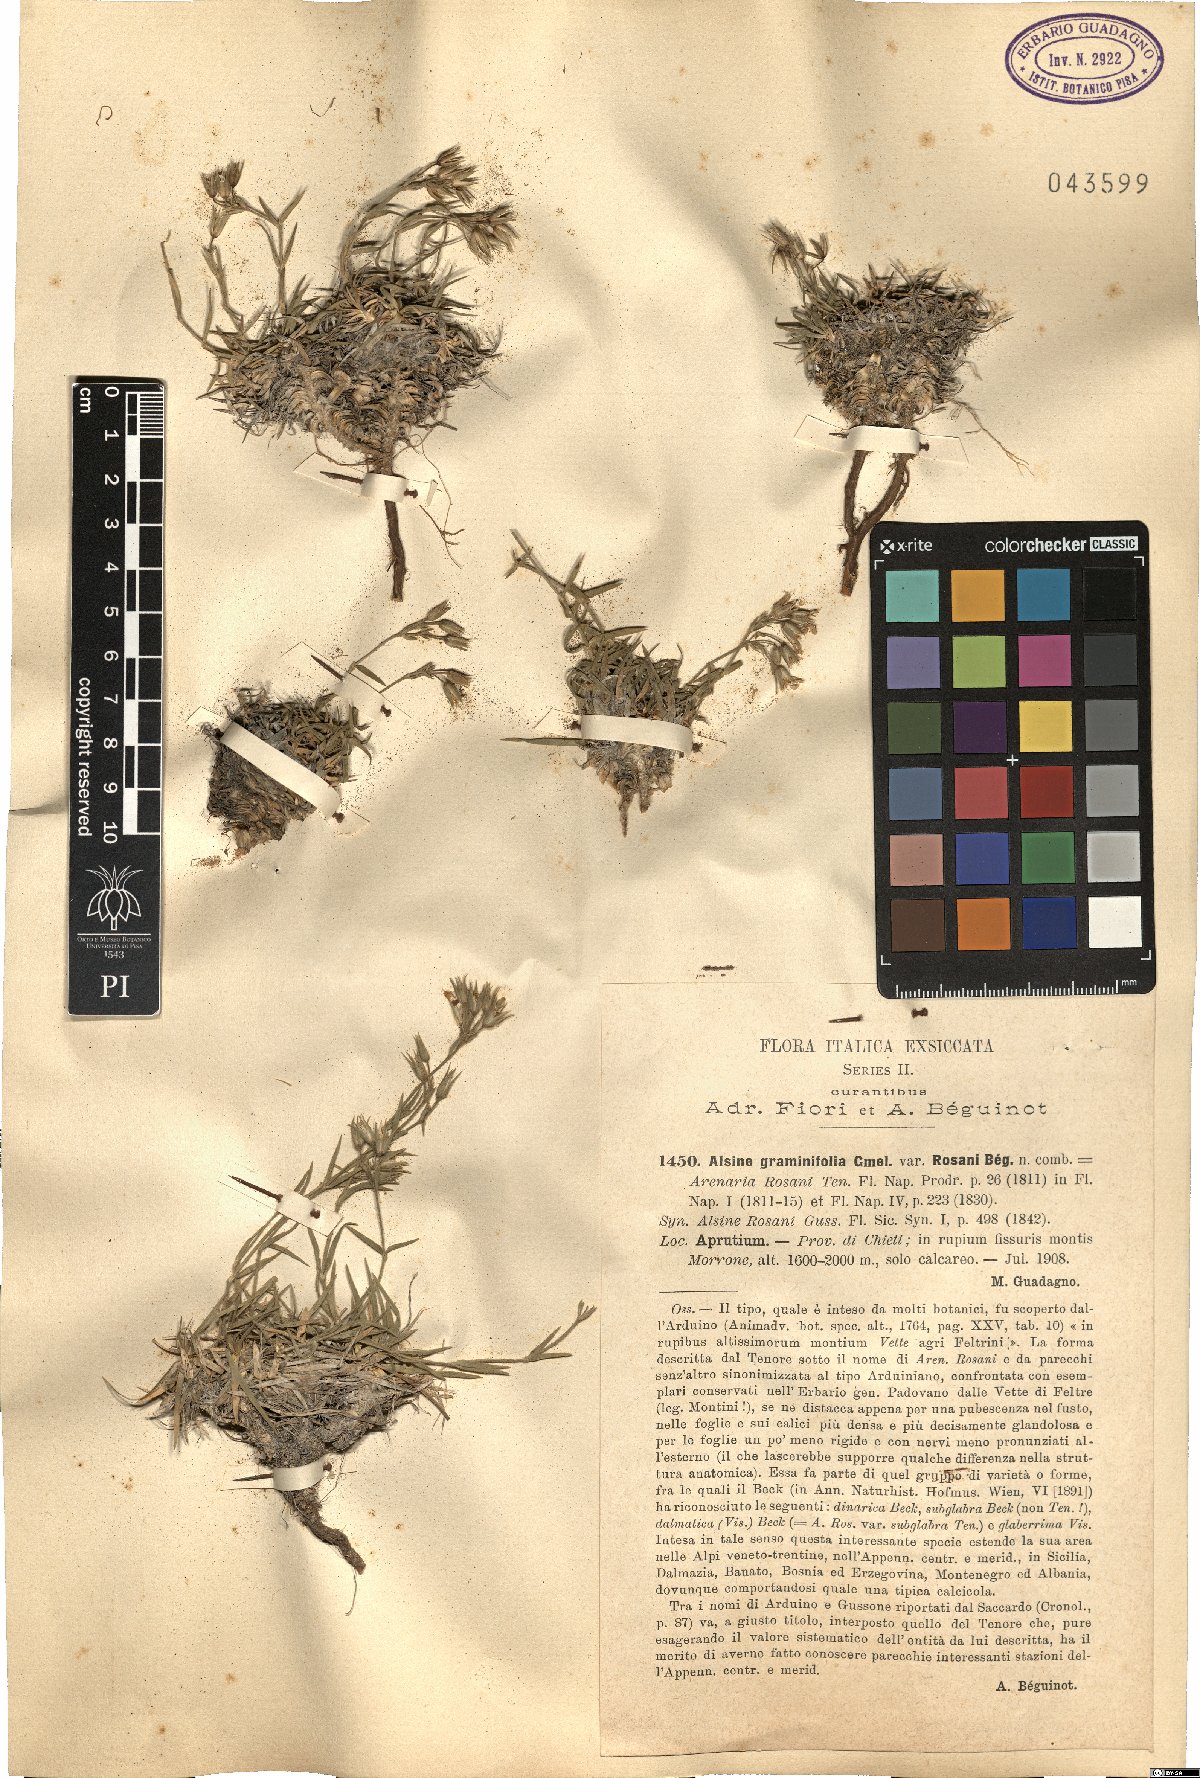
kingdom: Plantae
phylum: Tracheophyta
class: Magnoliopsida
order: Caryophyllales
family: Caryophyllaceae
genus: Mcneillia
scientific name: Mcneillia graminifolia
